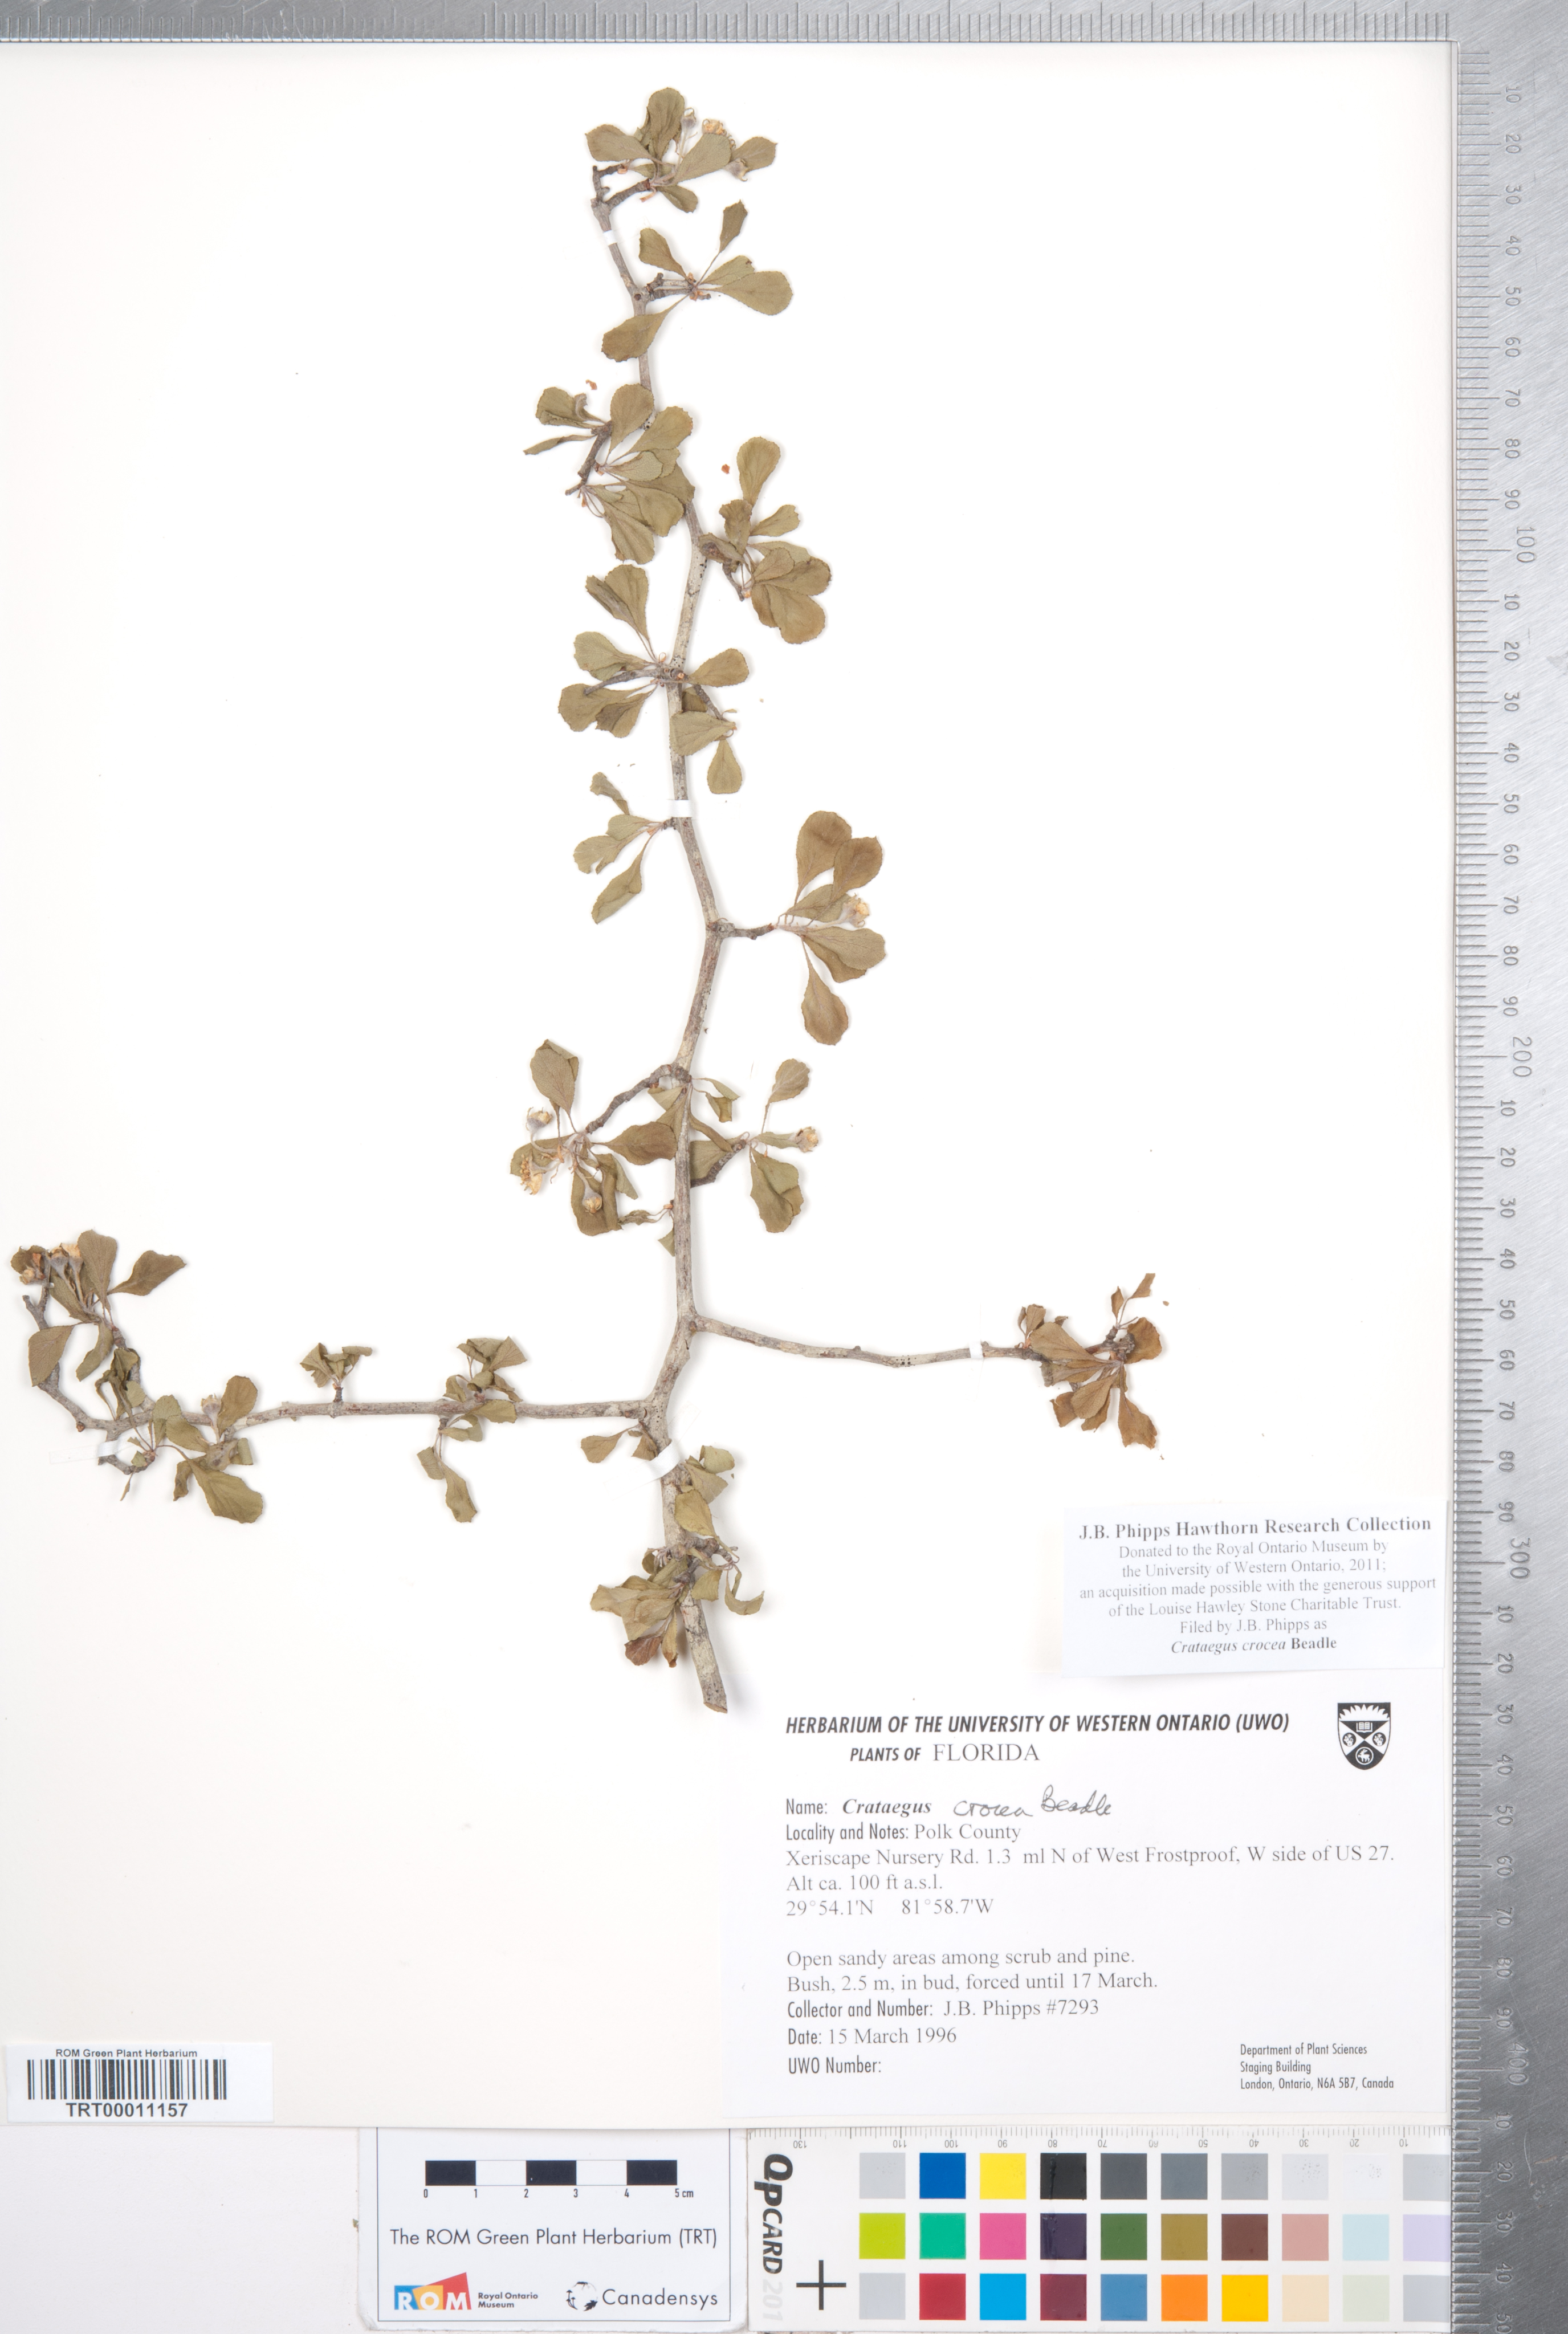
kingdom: Plantae
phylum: Tracheophyta
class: Magnoliopsida
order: Rosales
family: Rosaceae
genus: Crataegus
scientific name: Crataegus lassa
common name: Florida hawthorn
